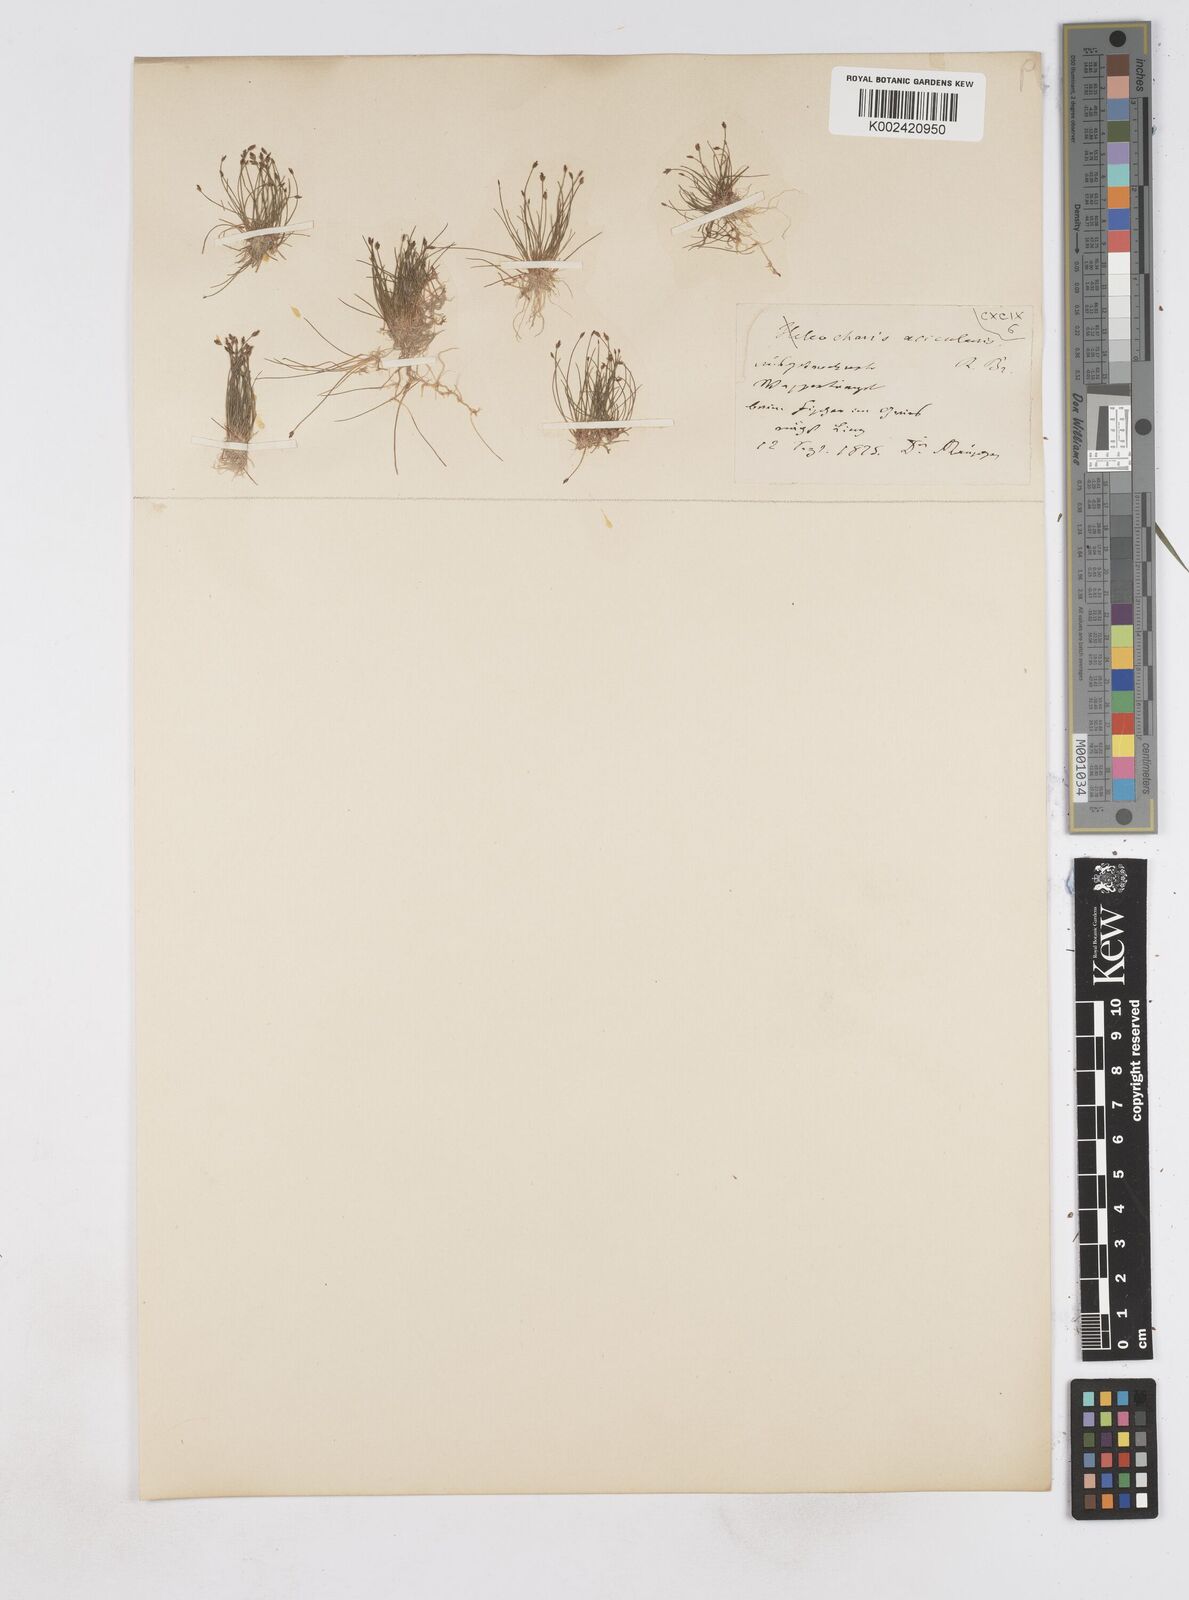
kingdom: Plantae
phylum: Tracheophyta
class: Liliopsida
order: Poales
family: Cyperaceae
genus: Eleocharis
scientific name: Eleocharis acicularis
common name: Needle spike-rush
